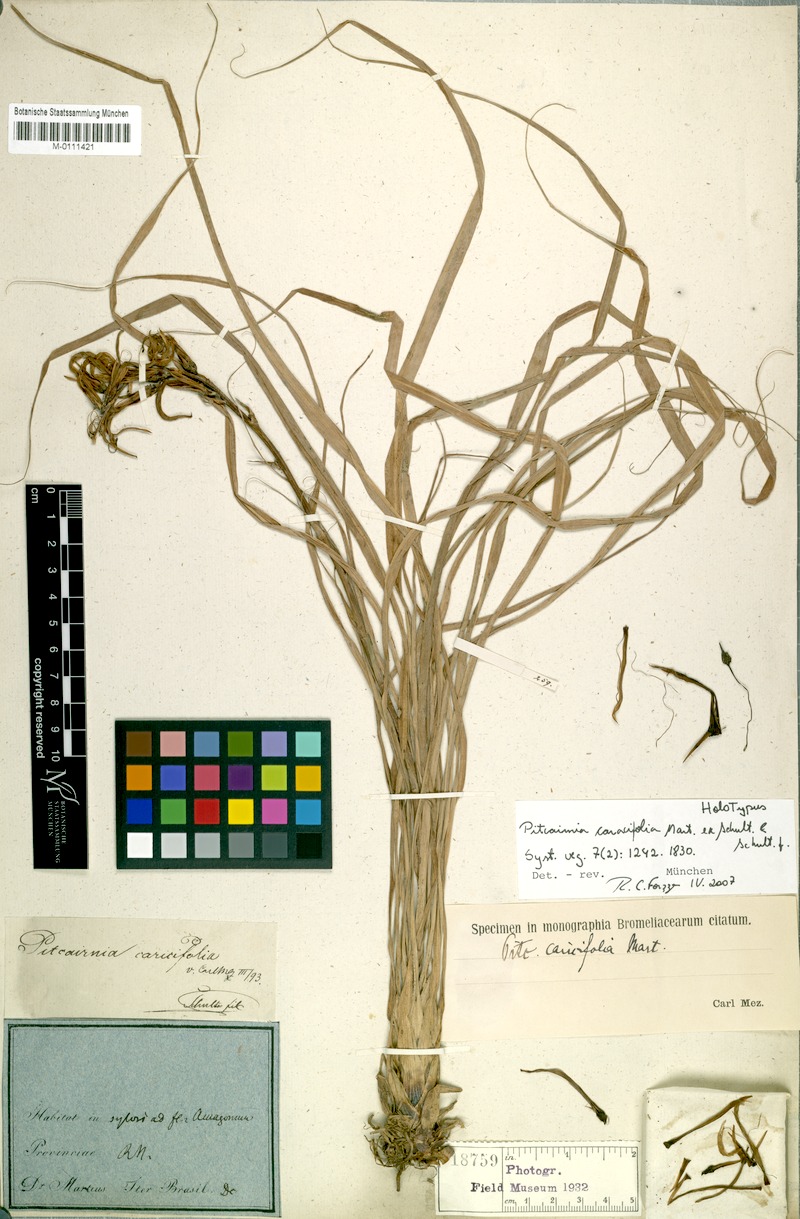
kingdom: Plantae
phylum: Tracheophyta
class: Liliopsida
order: Poales
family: Bromeliaceae
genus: Pitcairnia
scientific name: Pitcairnia caricifolia
